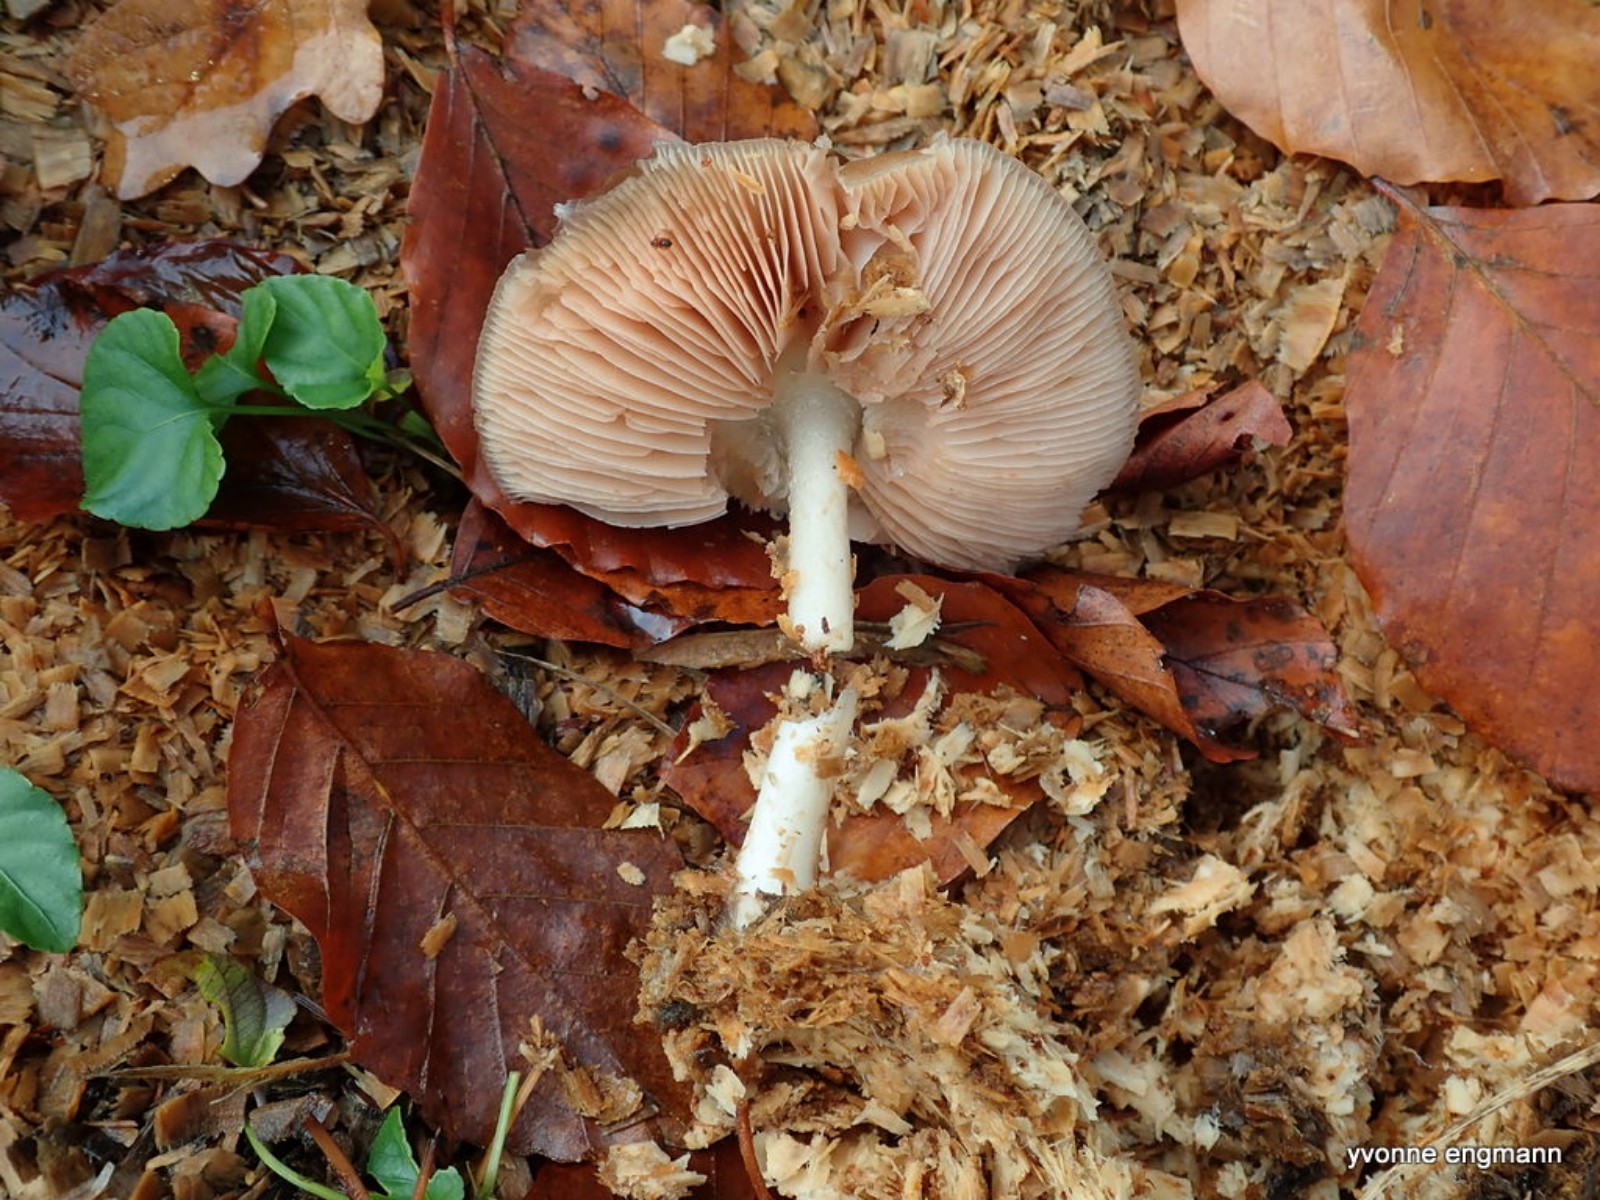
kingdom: Fungi
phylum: Basidiomycota
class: Agaricomycetes
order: Agaricales
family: Pluteaceae
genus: Pluteus
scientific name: Pluteus cervinus
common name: sodfarvet skærmhat
